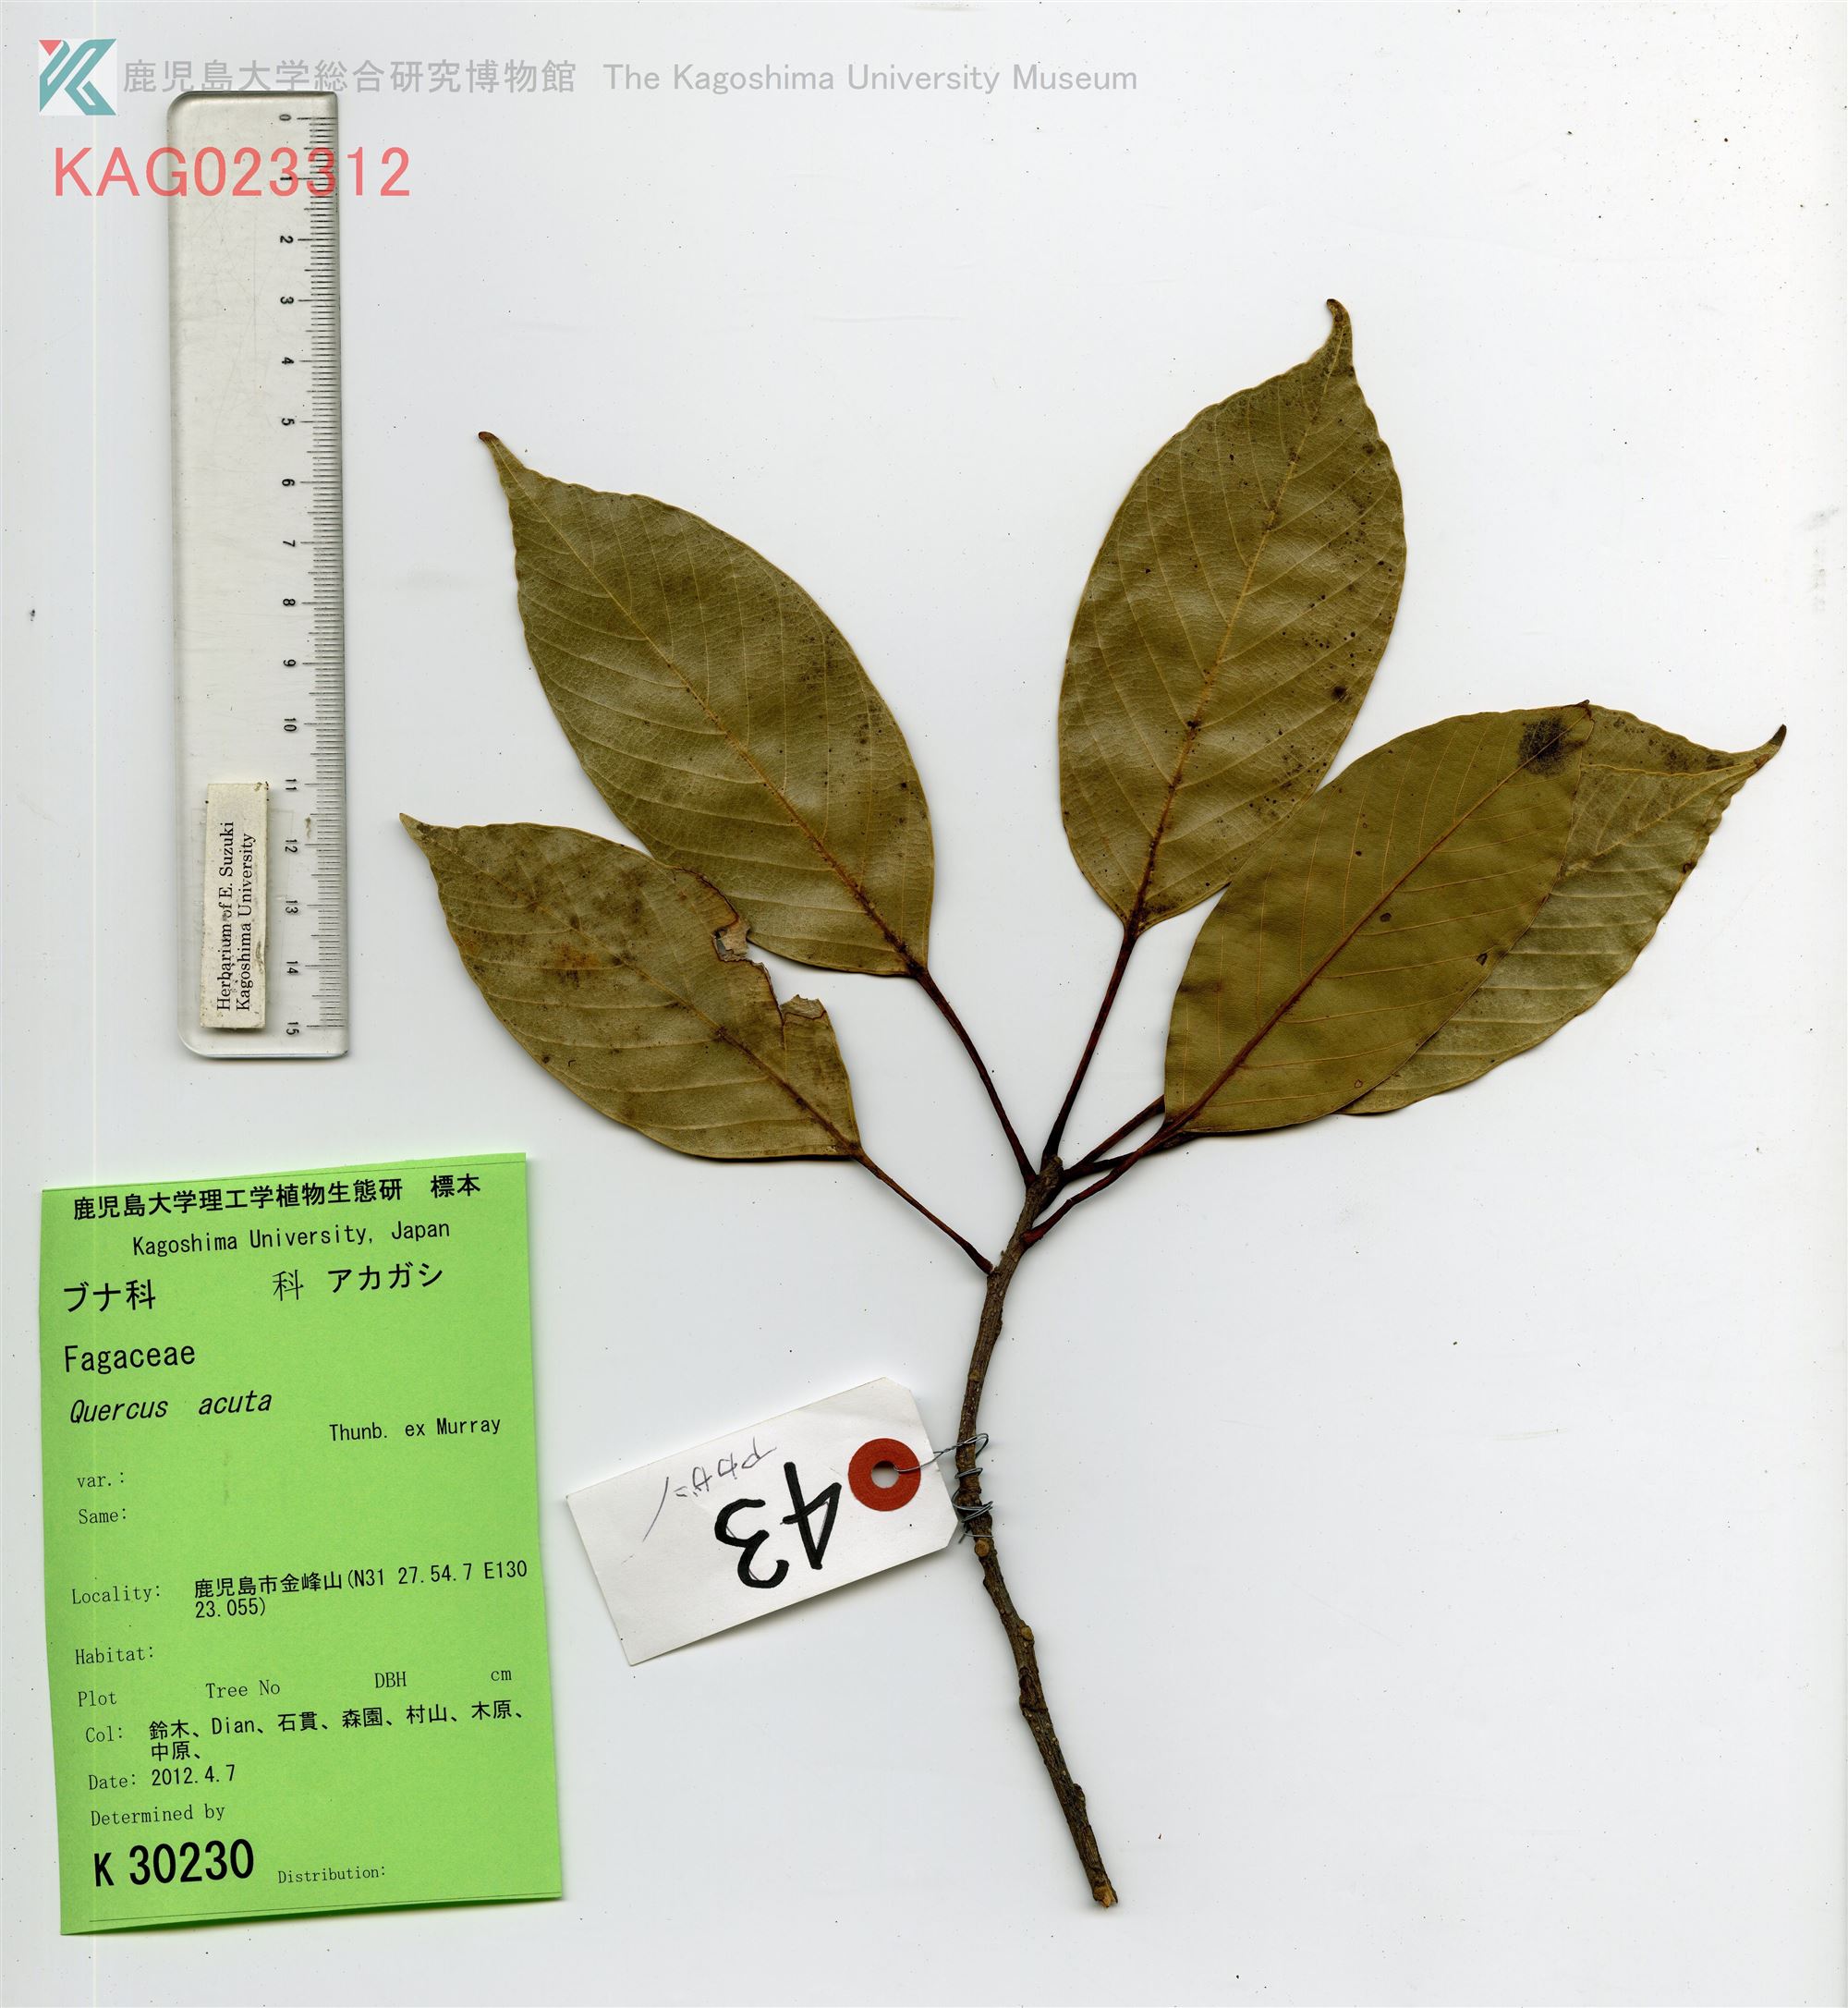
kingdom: Plantae
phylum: Tracheophyta
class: Magnoliopsida
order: Fagales
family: Fagaceae
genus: Quercus
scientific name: Quercus acuta
